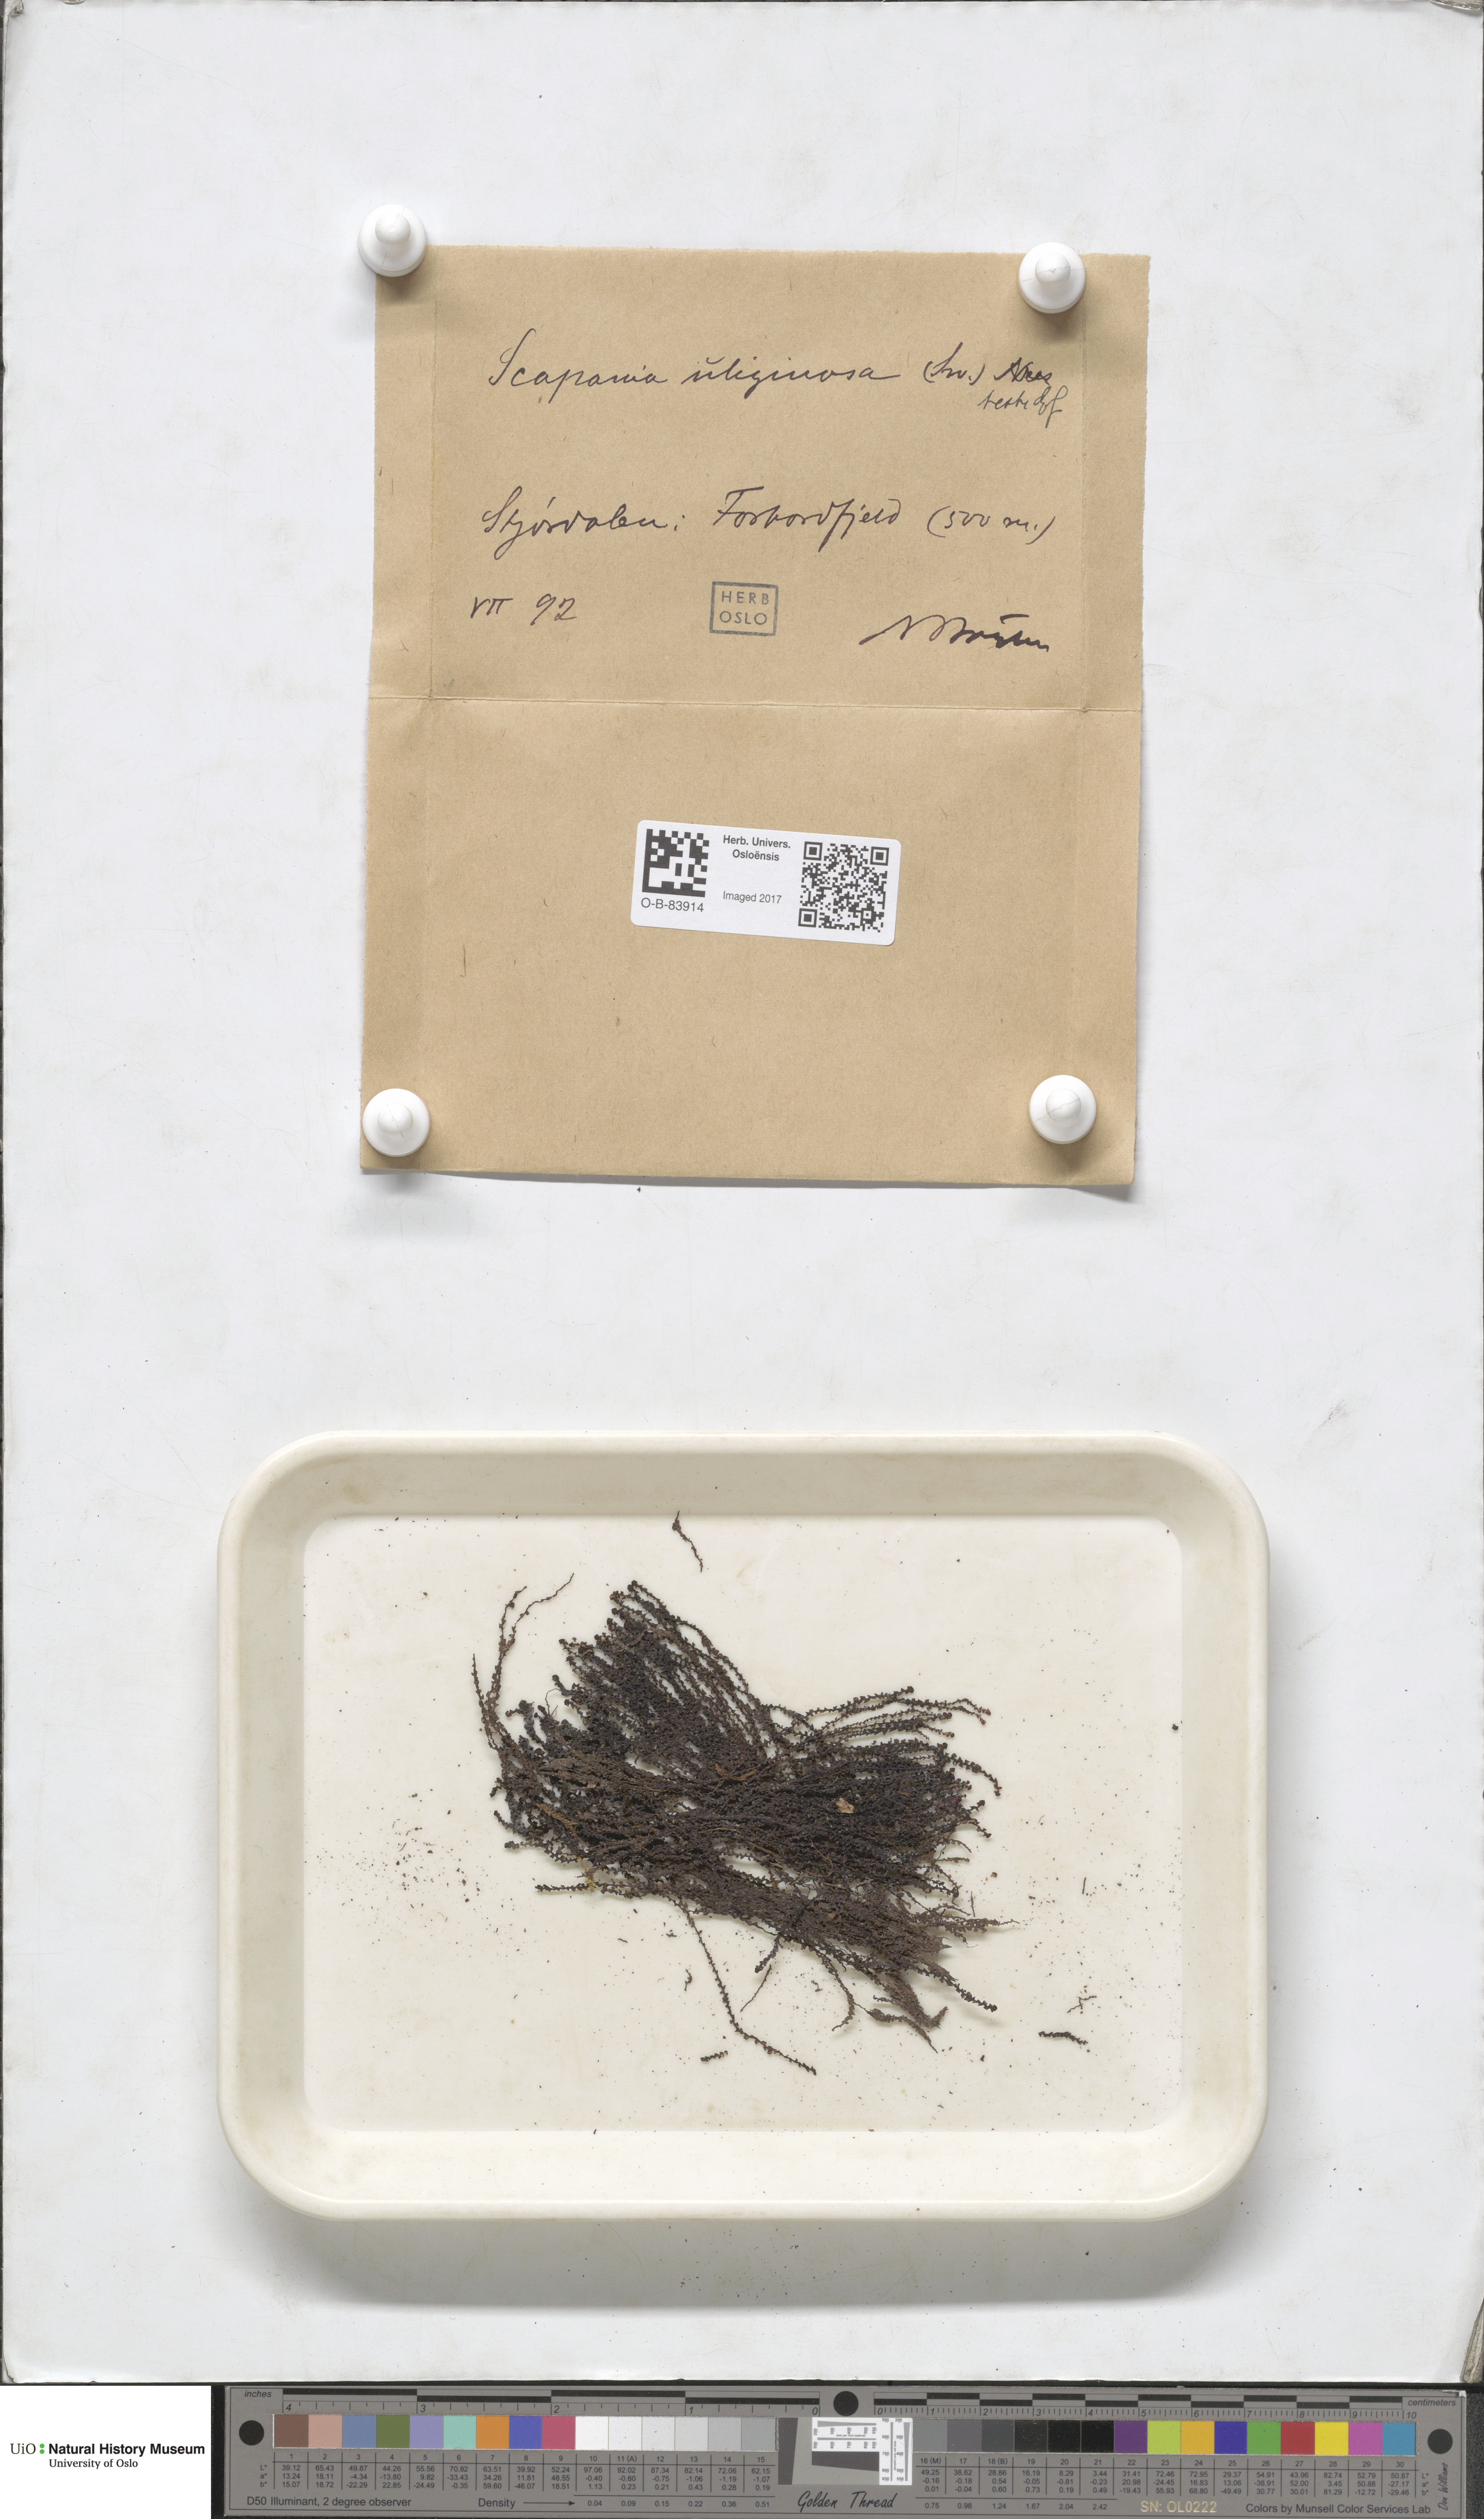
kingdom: Plantae
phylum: Marchantiophyta
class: Jungermanniopsida
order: Jungermanniales
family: Scapaniaceae
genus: Scapania
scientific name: Scapania uliginosa
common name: Marsh earwort
